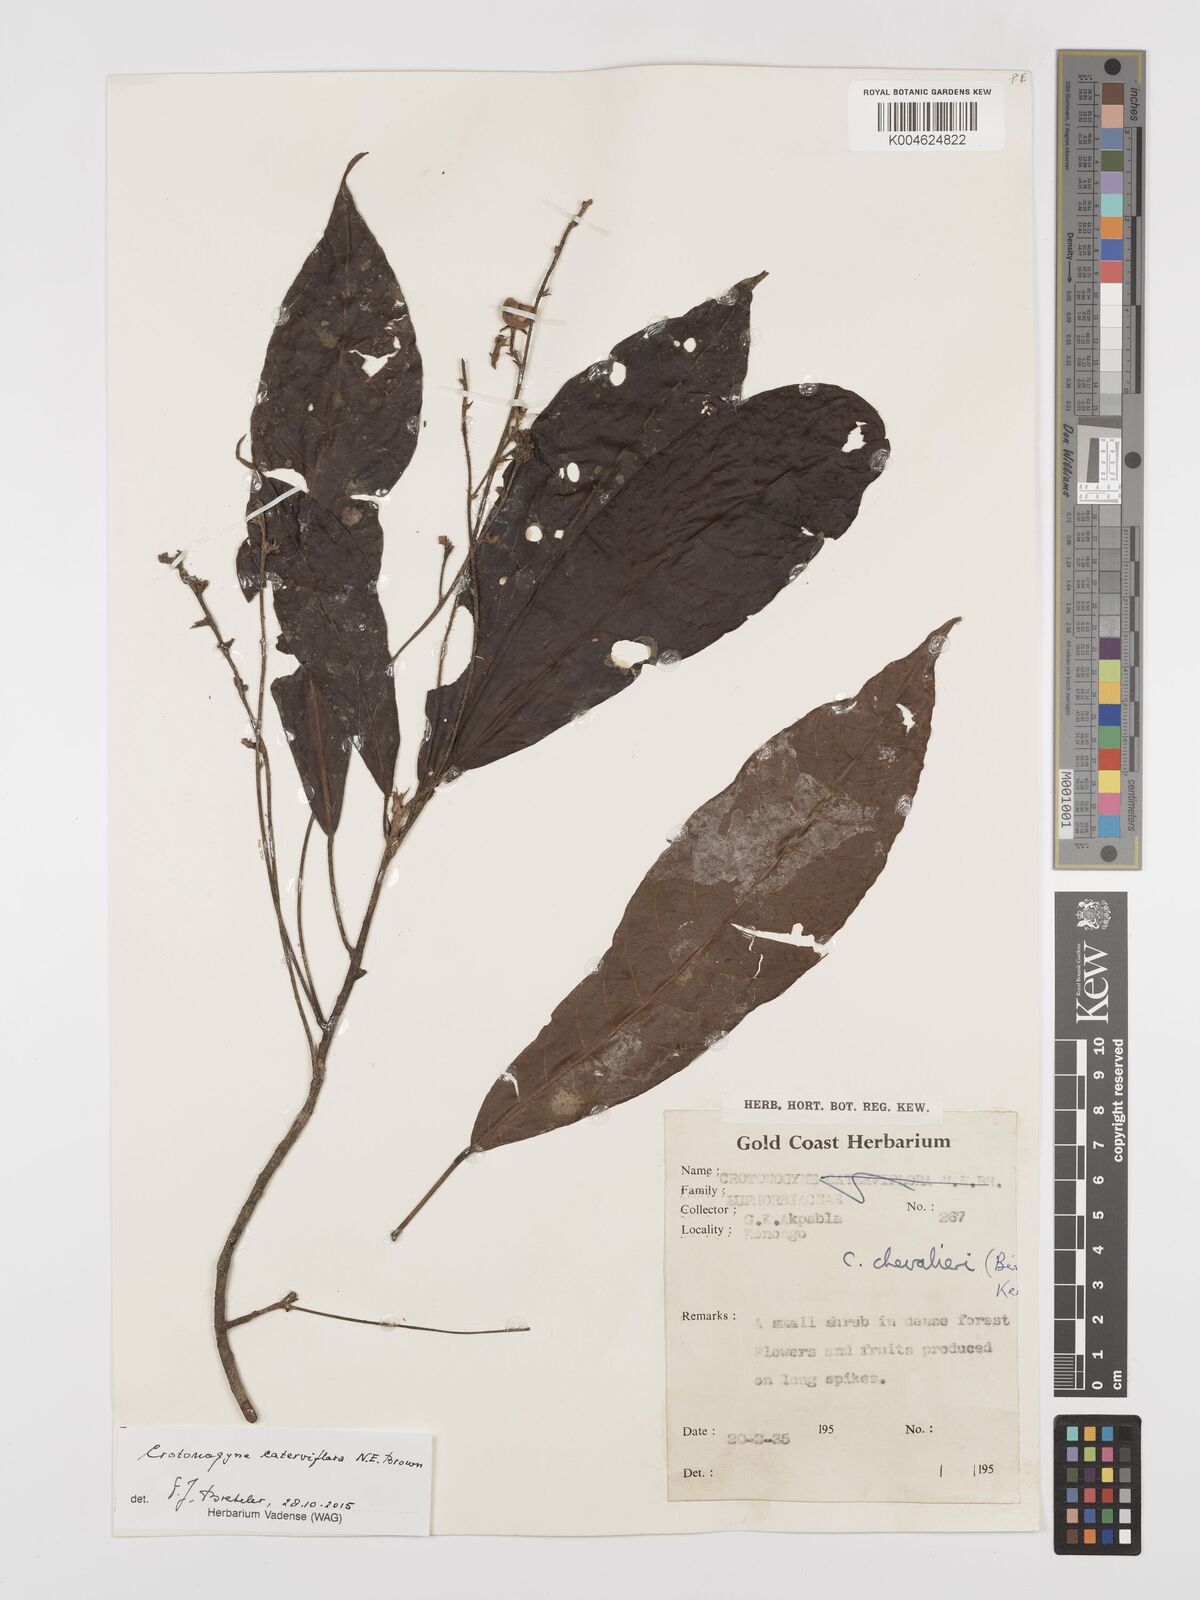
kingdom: Plantae
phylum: Tracheophyta
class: Magnoliopsida
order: Malpighiales
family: Euphorbiaceae
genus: Crotonogyne
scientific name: Crotonogyne caterviflora
